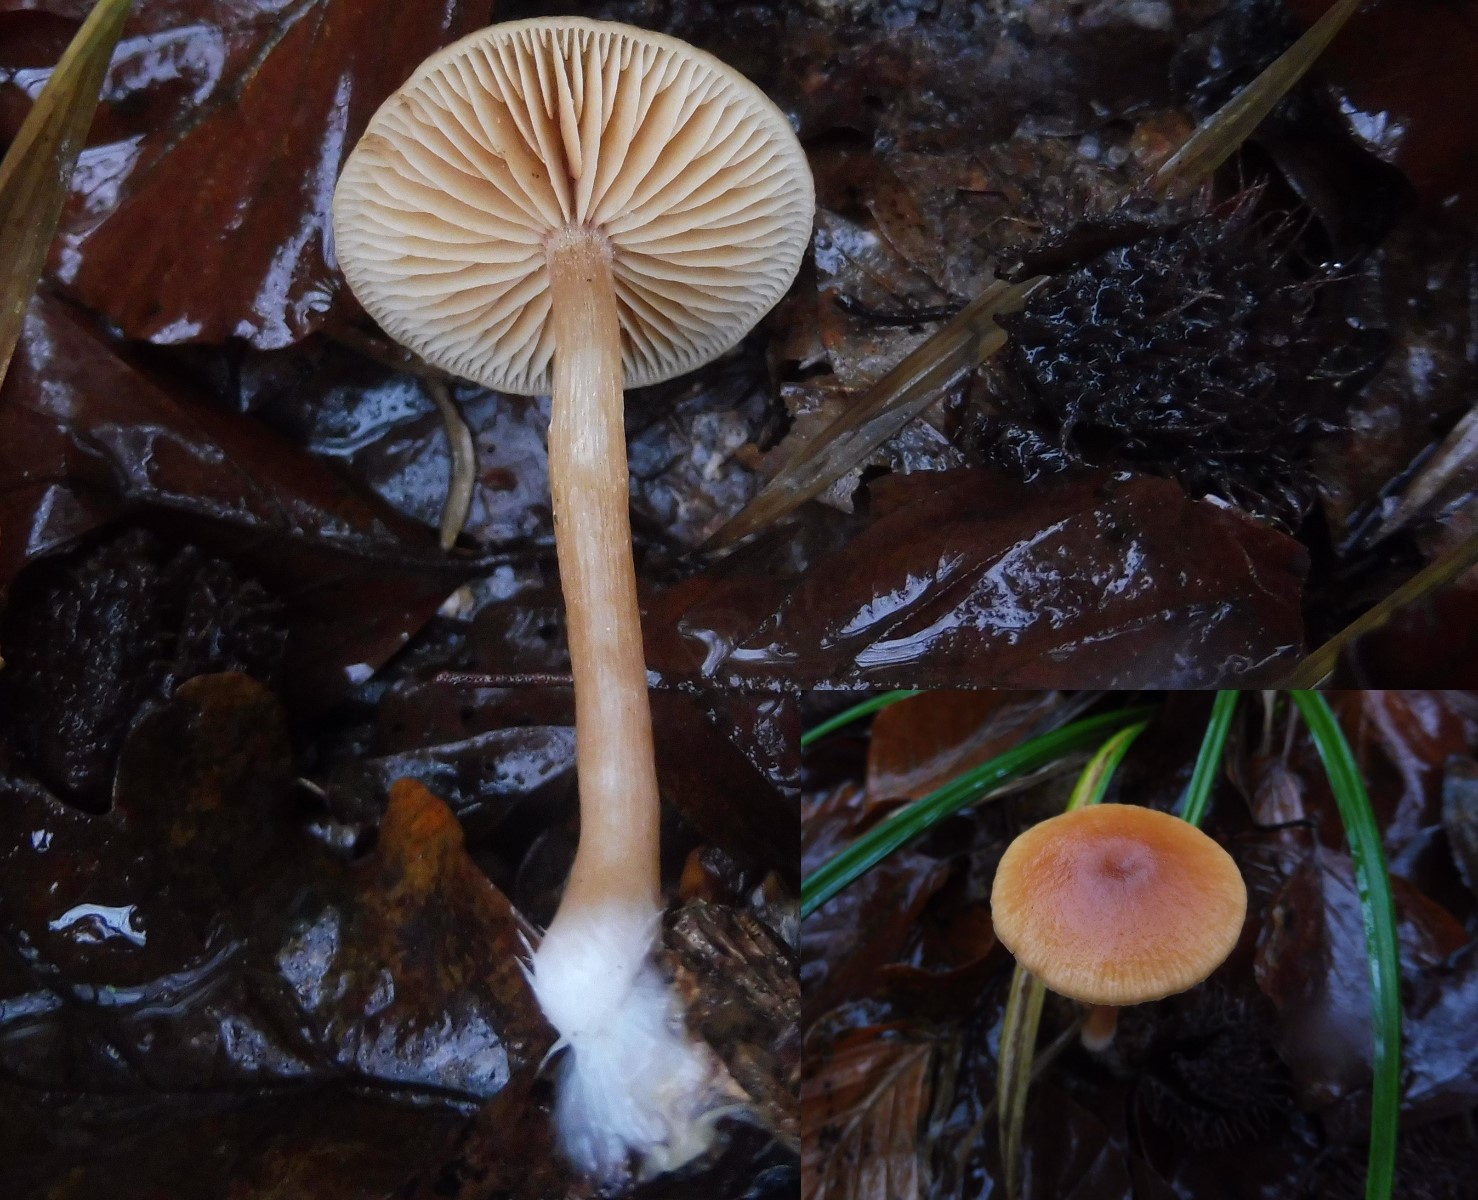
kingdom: Fungi
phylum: Basidiomycota
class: Agaricomycetes
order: Agaricales
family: Tubariaceae
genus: Tubaria
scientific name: Tubaria furfuracea
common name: kliddet fnughat
